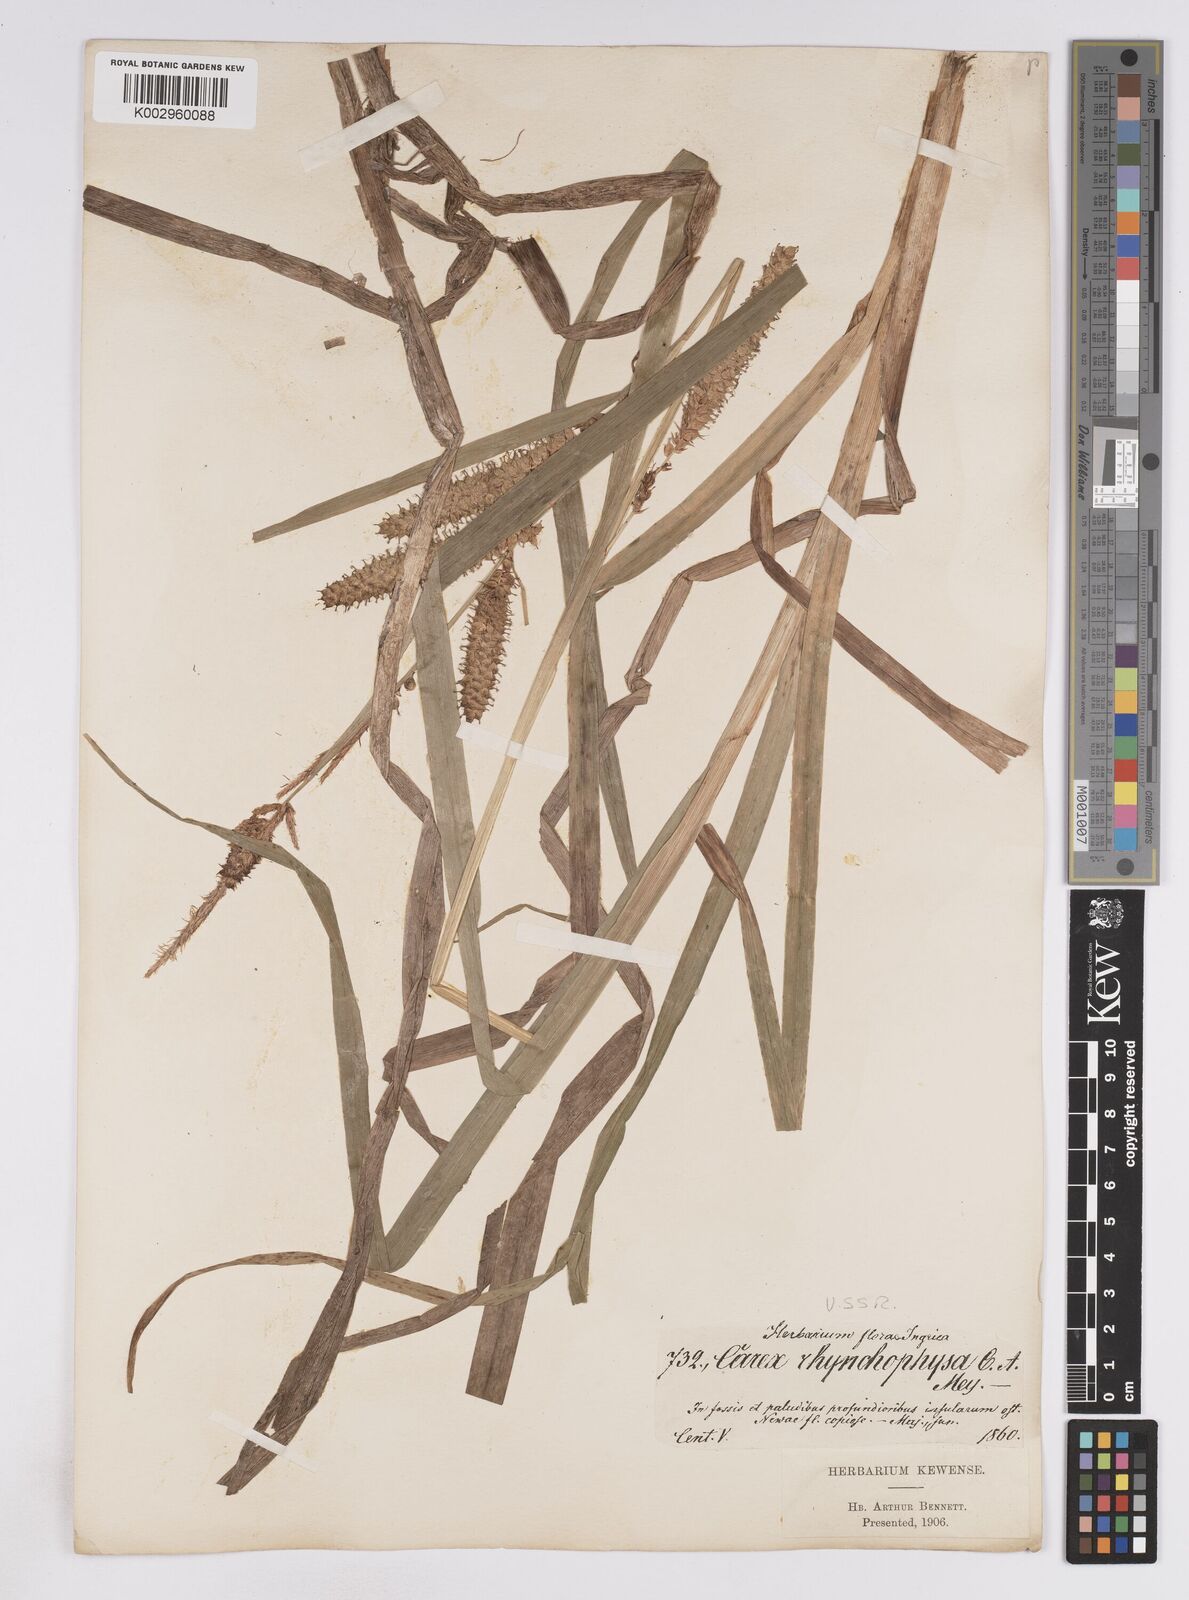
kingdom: Plantae
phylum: Tracheophyta
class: Liliopsida
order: Poales
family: Cyperaceae
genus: Carex
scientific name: Carex utriculata
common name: Beaked sedge
